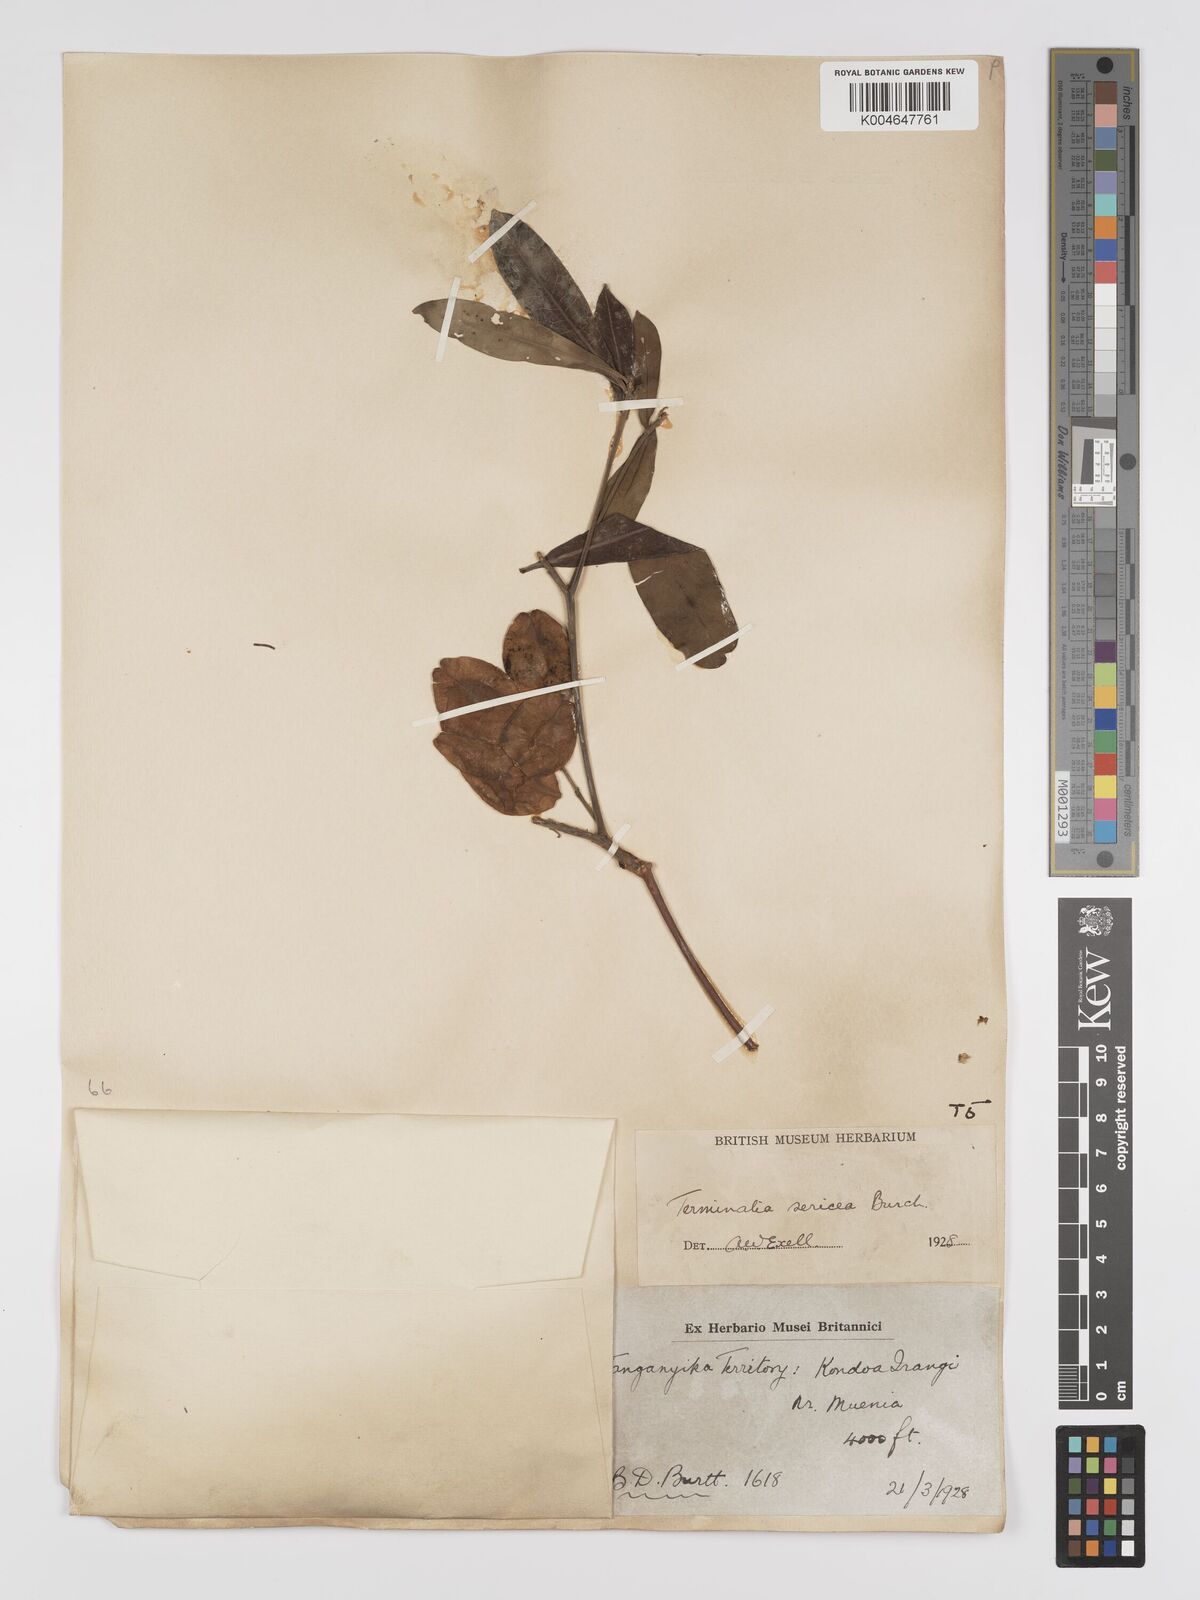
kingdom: Plantae
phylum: Tracheophyta
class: Magnoliopsida
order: Myrtales
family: Combretaceae
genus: Terminalia
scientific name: Terminalia
